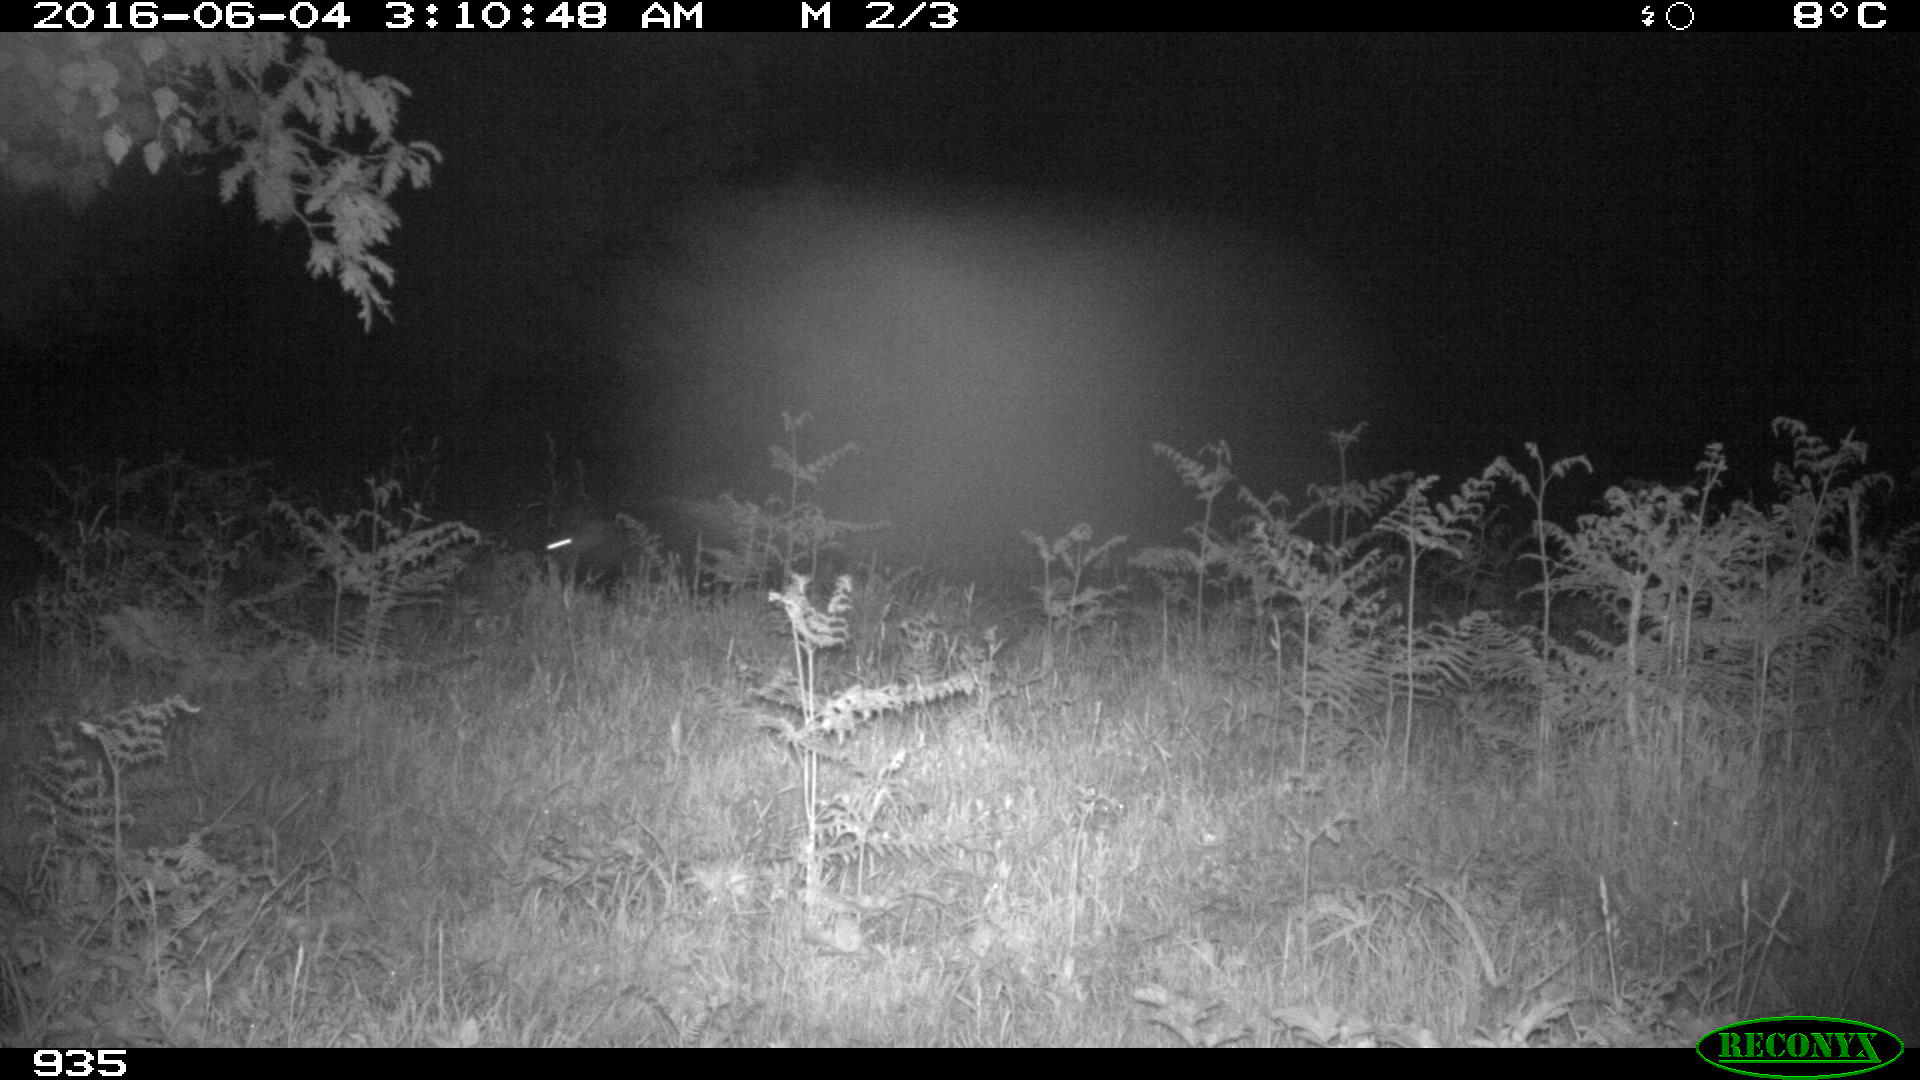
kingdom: Animalia
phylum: Chordata
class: Mammalia
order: Artiodactyla
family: Suidae
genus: Sus
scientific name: Sus scrofa
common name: Wild boar
